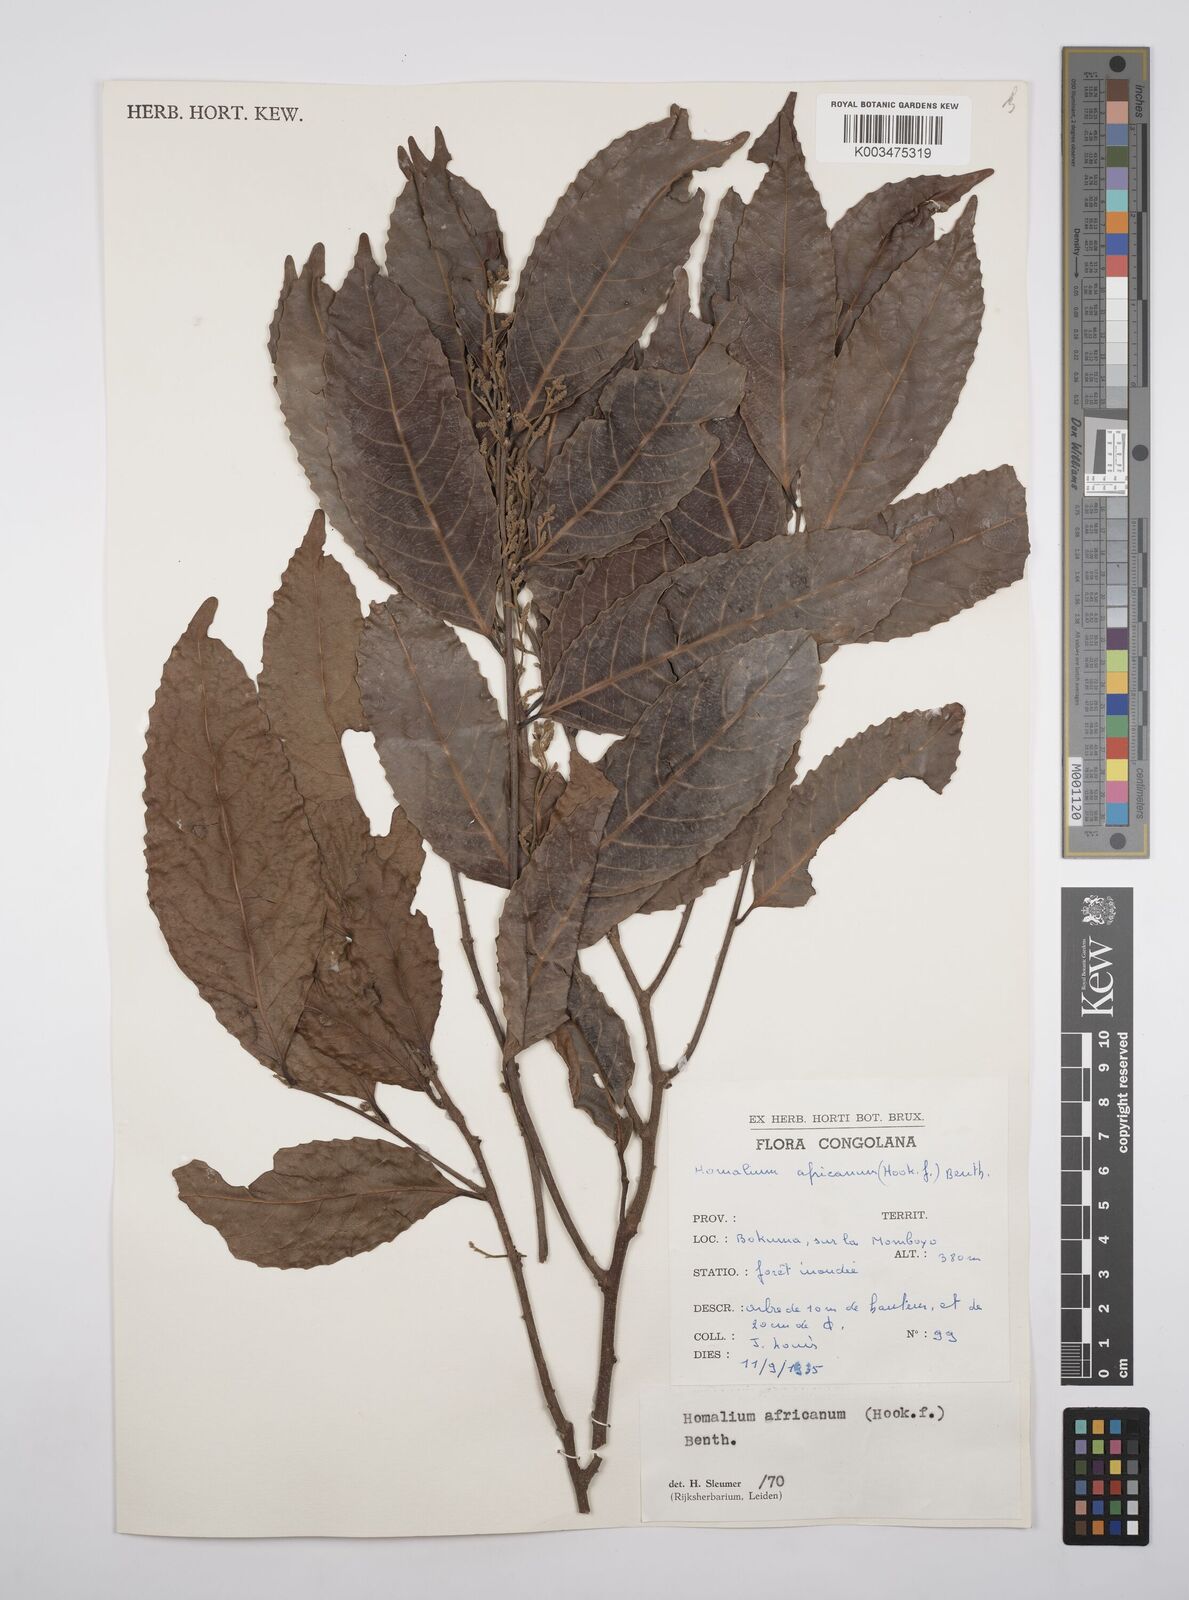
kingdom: Plantae
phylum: Tracheophyta
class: Magnoliopsida
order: Malpighiales
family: Salicaceae
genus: Homalium
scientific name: Homalium africanum
